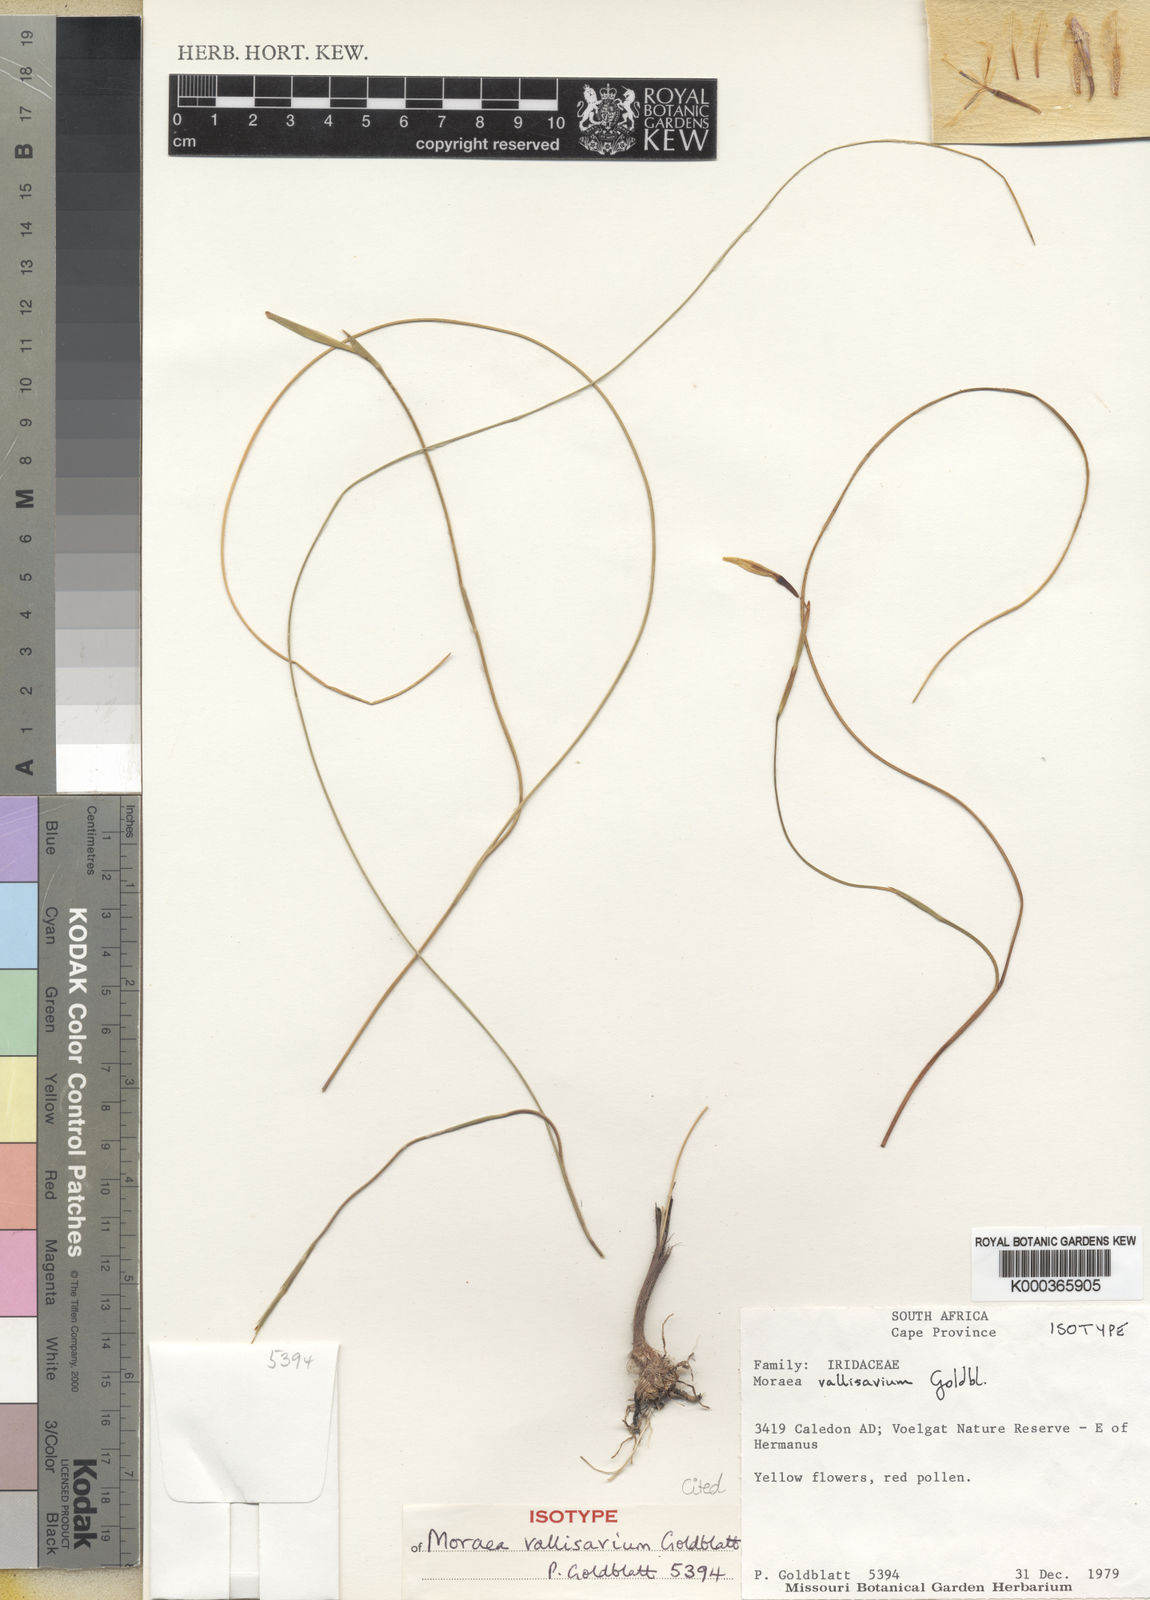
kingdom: Plantae
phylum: Tracheophyta
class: Liliopsida
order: Asparagales
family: Iridaceae
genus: Moraea
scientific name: Moraea vallisavium
